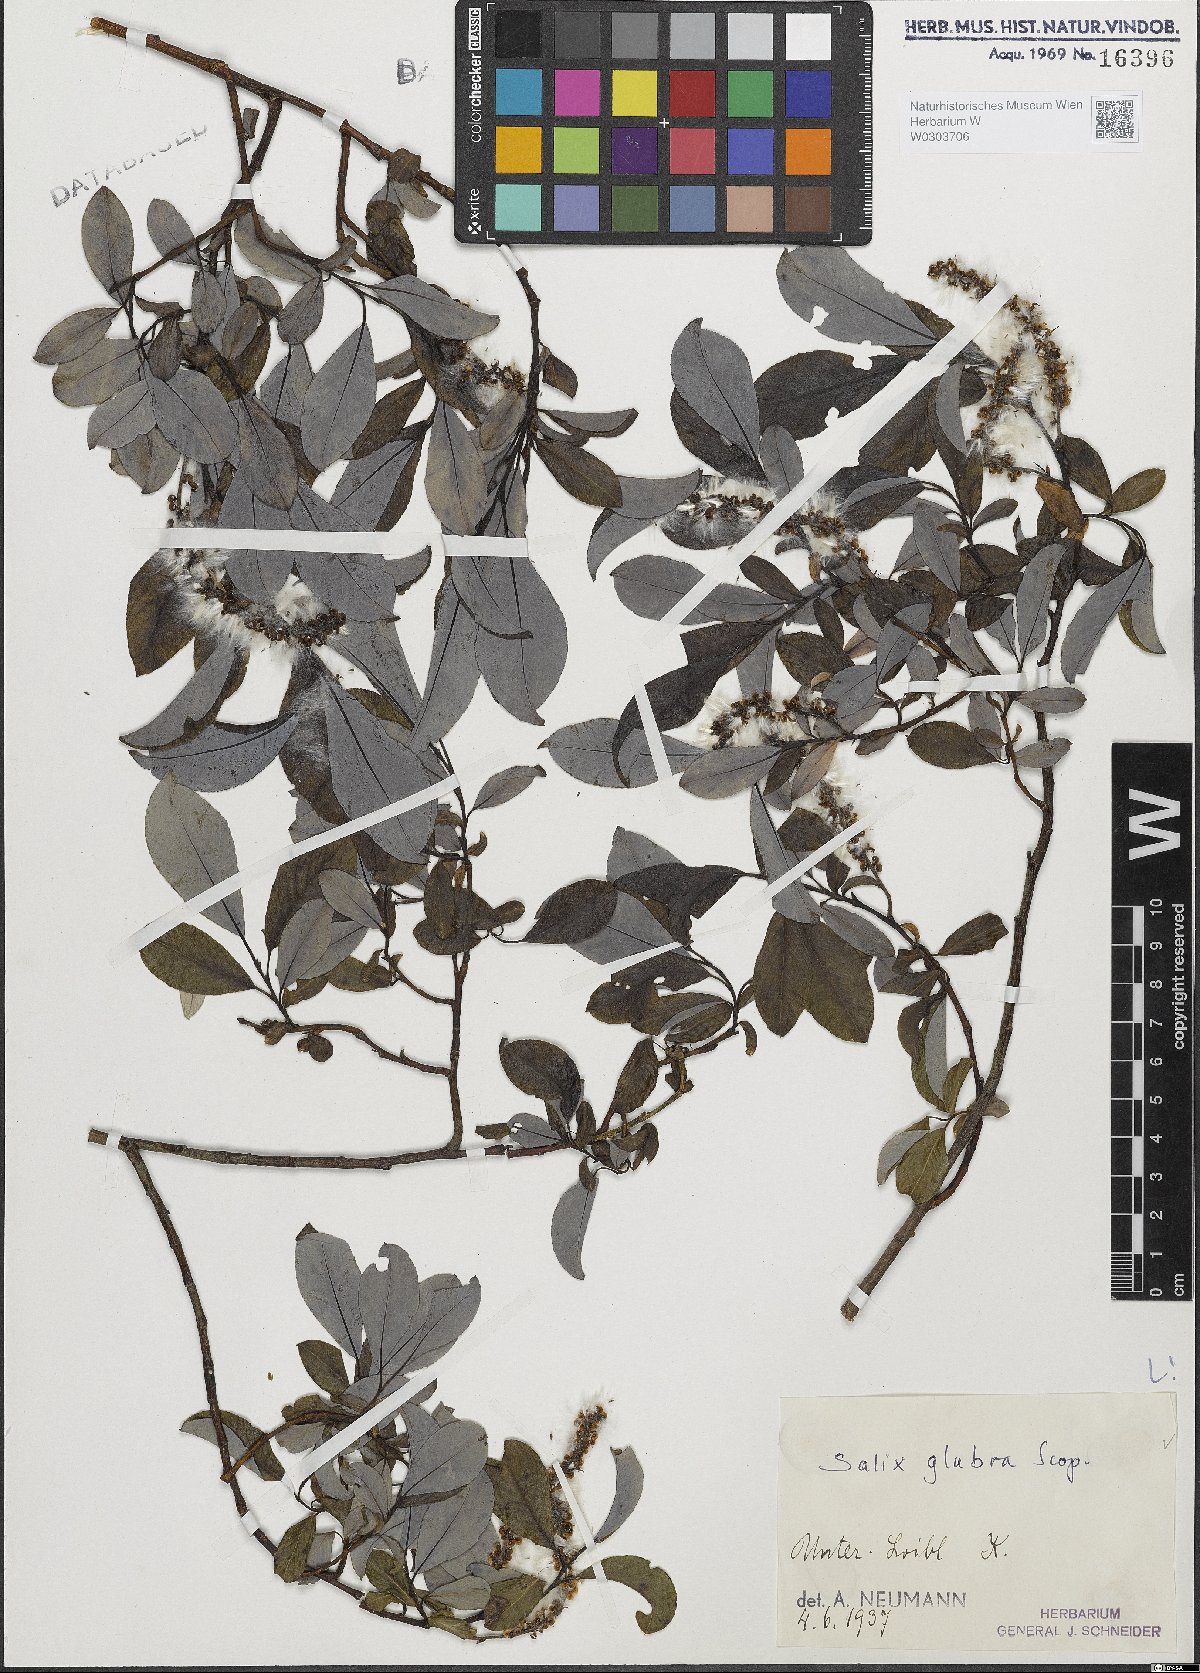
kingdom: Plantae
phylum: Tracheophyta
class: Magnoliopsida
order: Malpighiales
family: Salicaceae
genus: Salix
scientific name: Salix glabra
